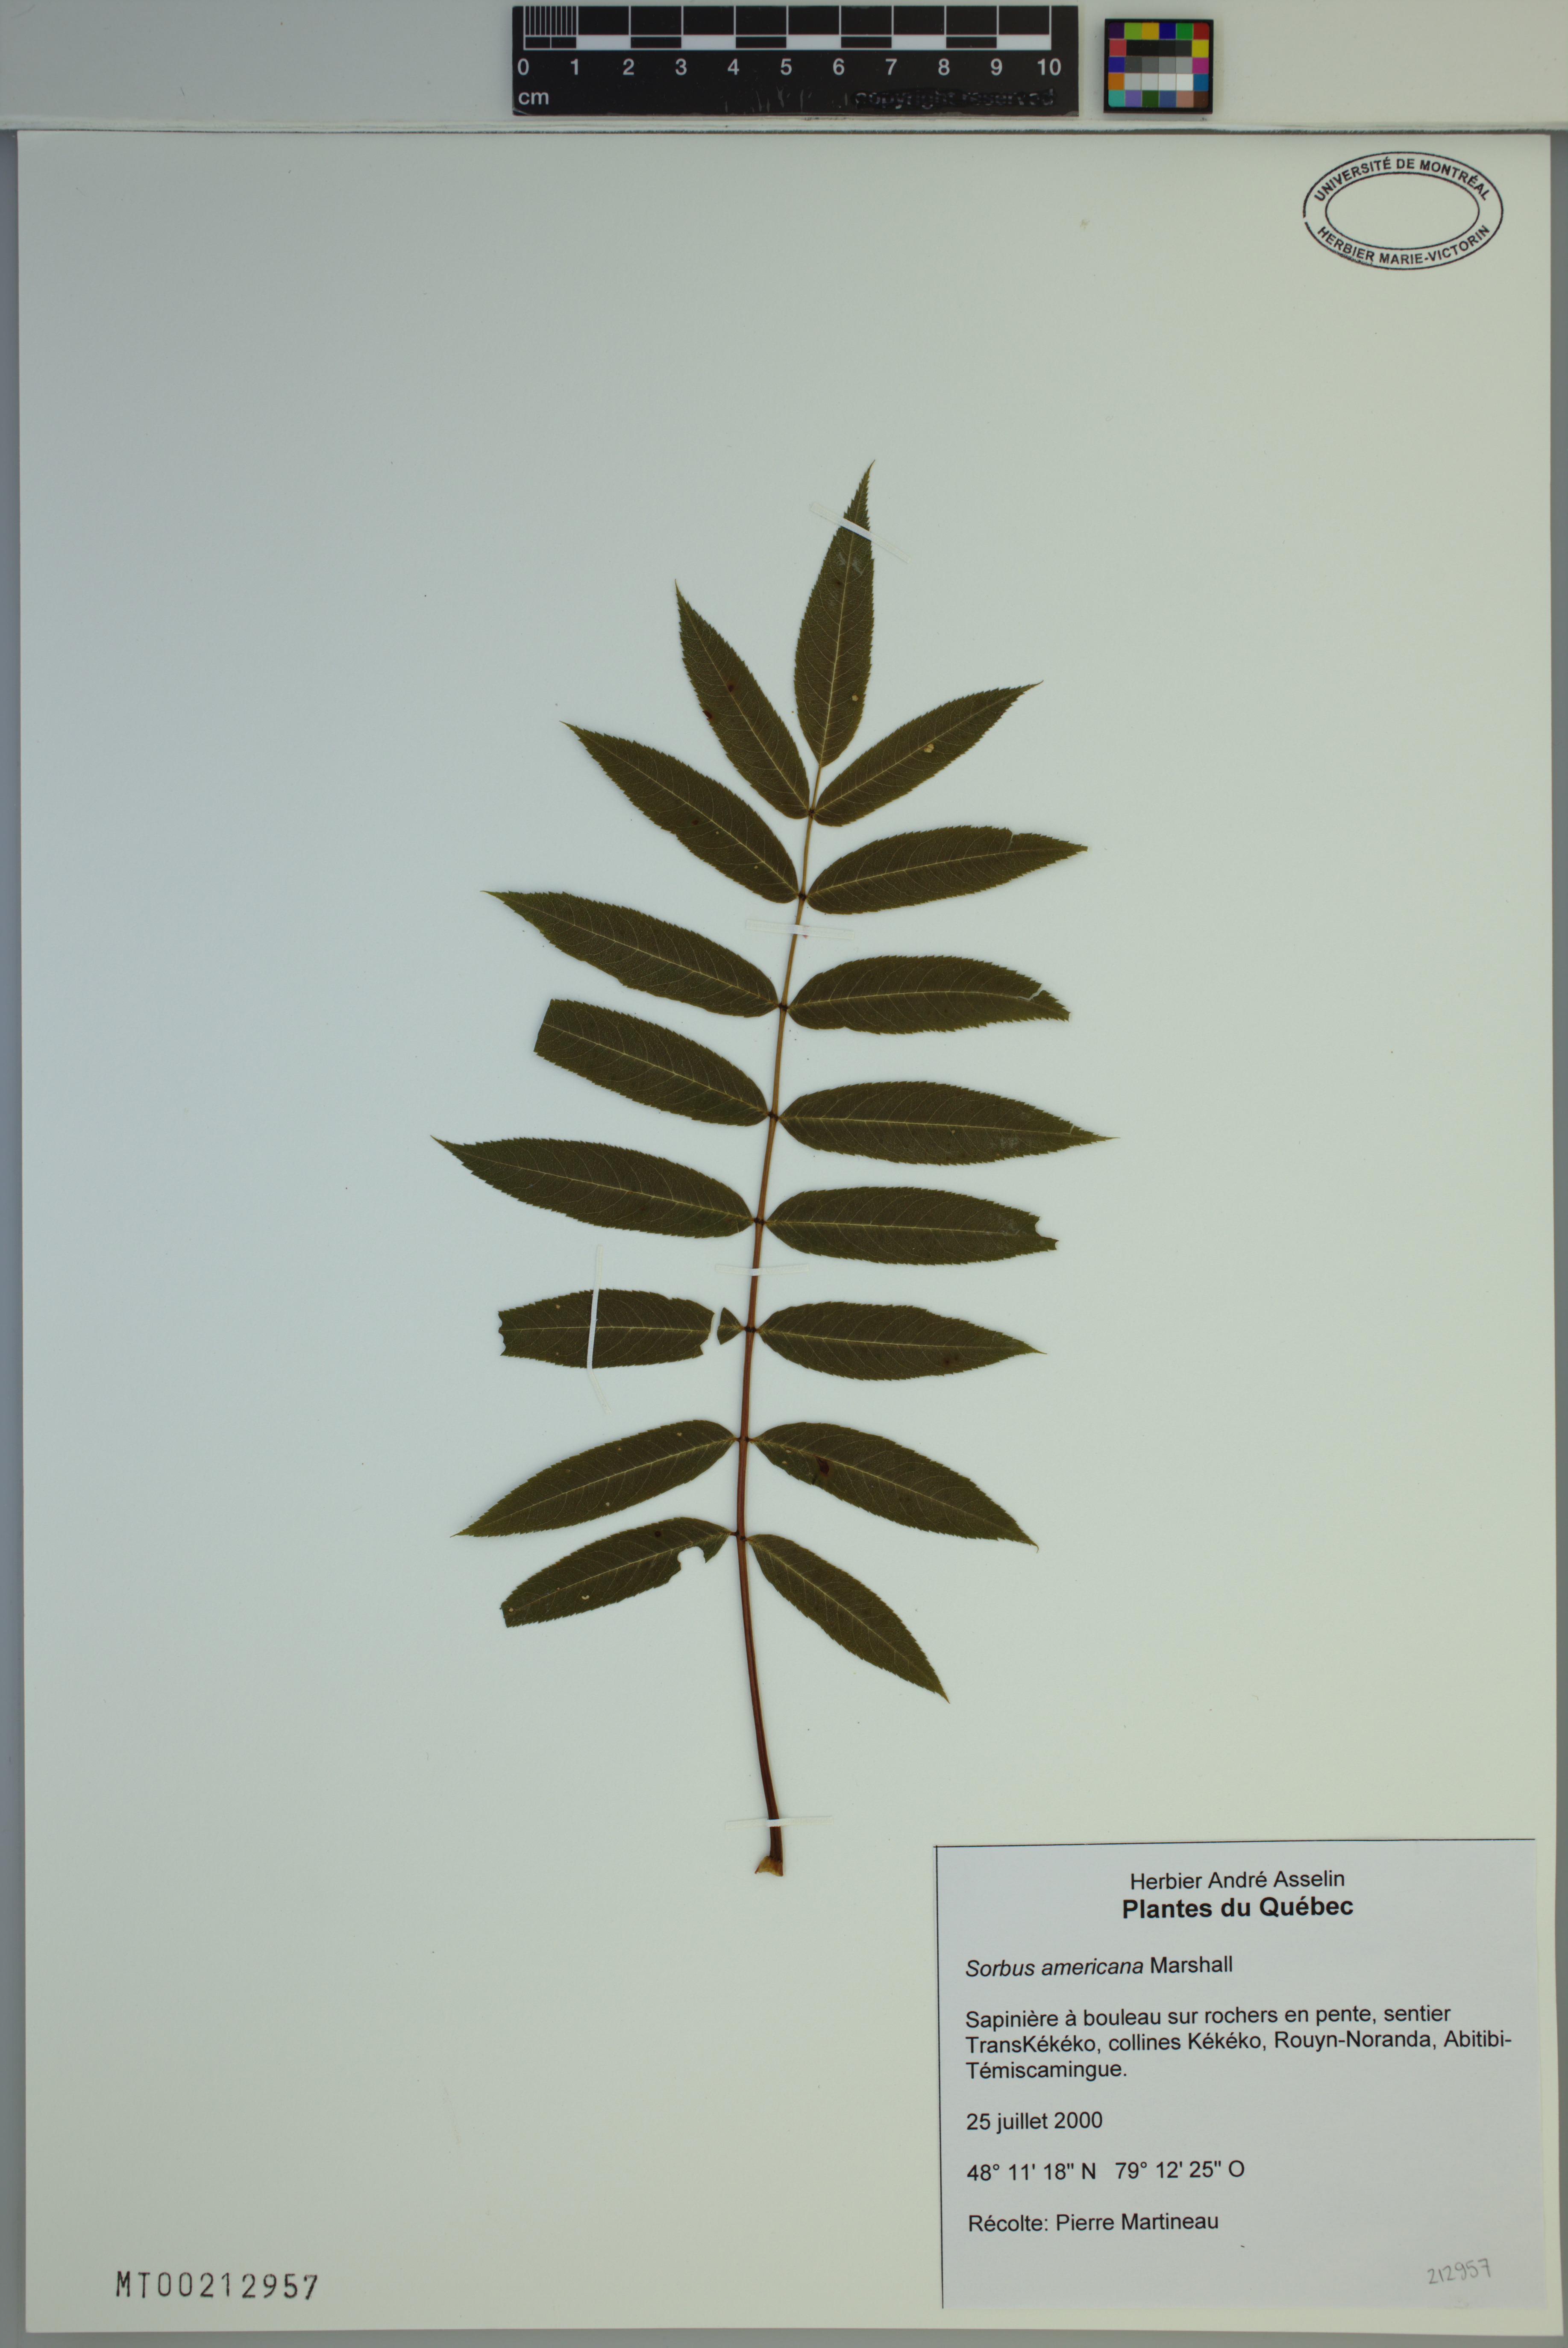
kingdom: Plantae
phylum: Tracheophyta
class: Magnoliopsida
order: Rosales
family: Rosaceae
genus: Sorbus
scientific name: Sorbus americana
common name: American mountain-ash
